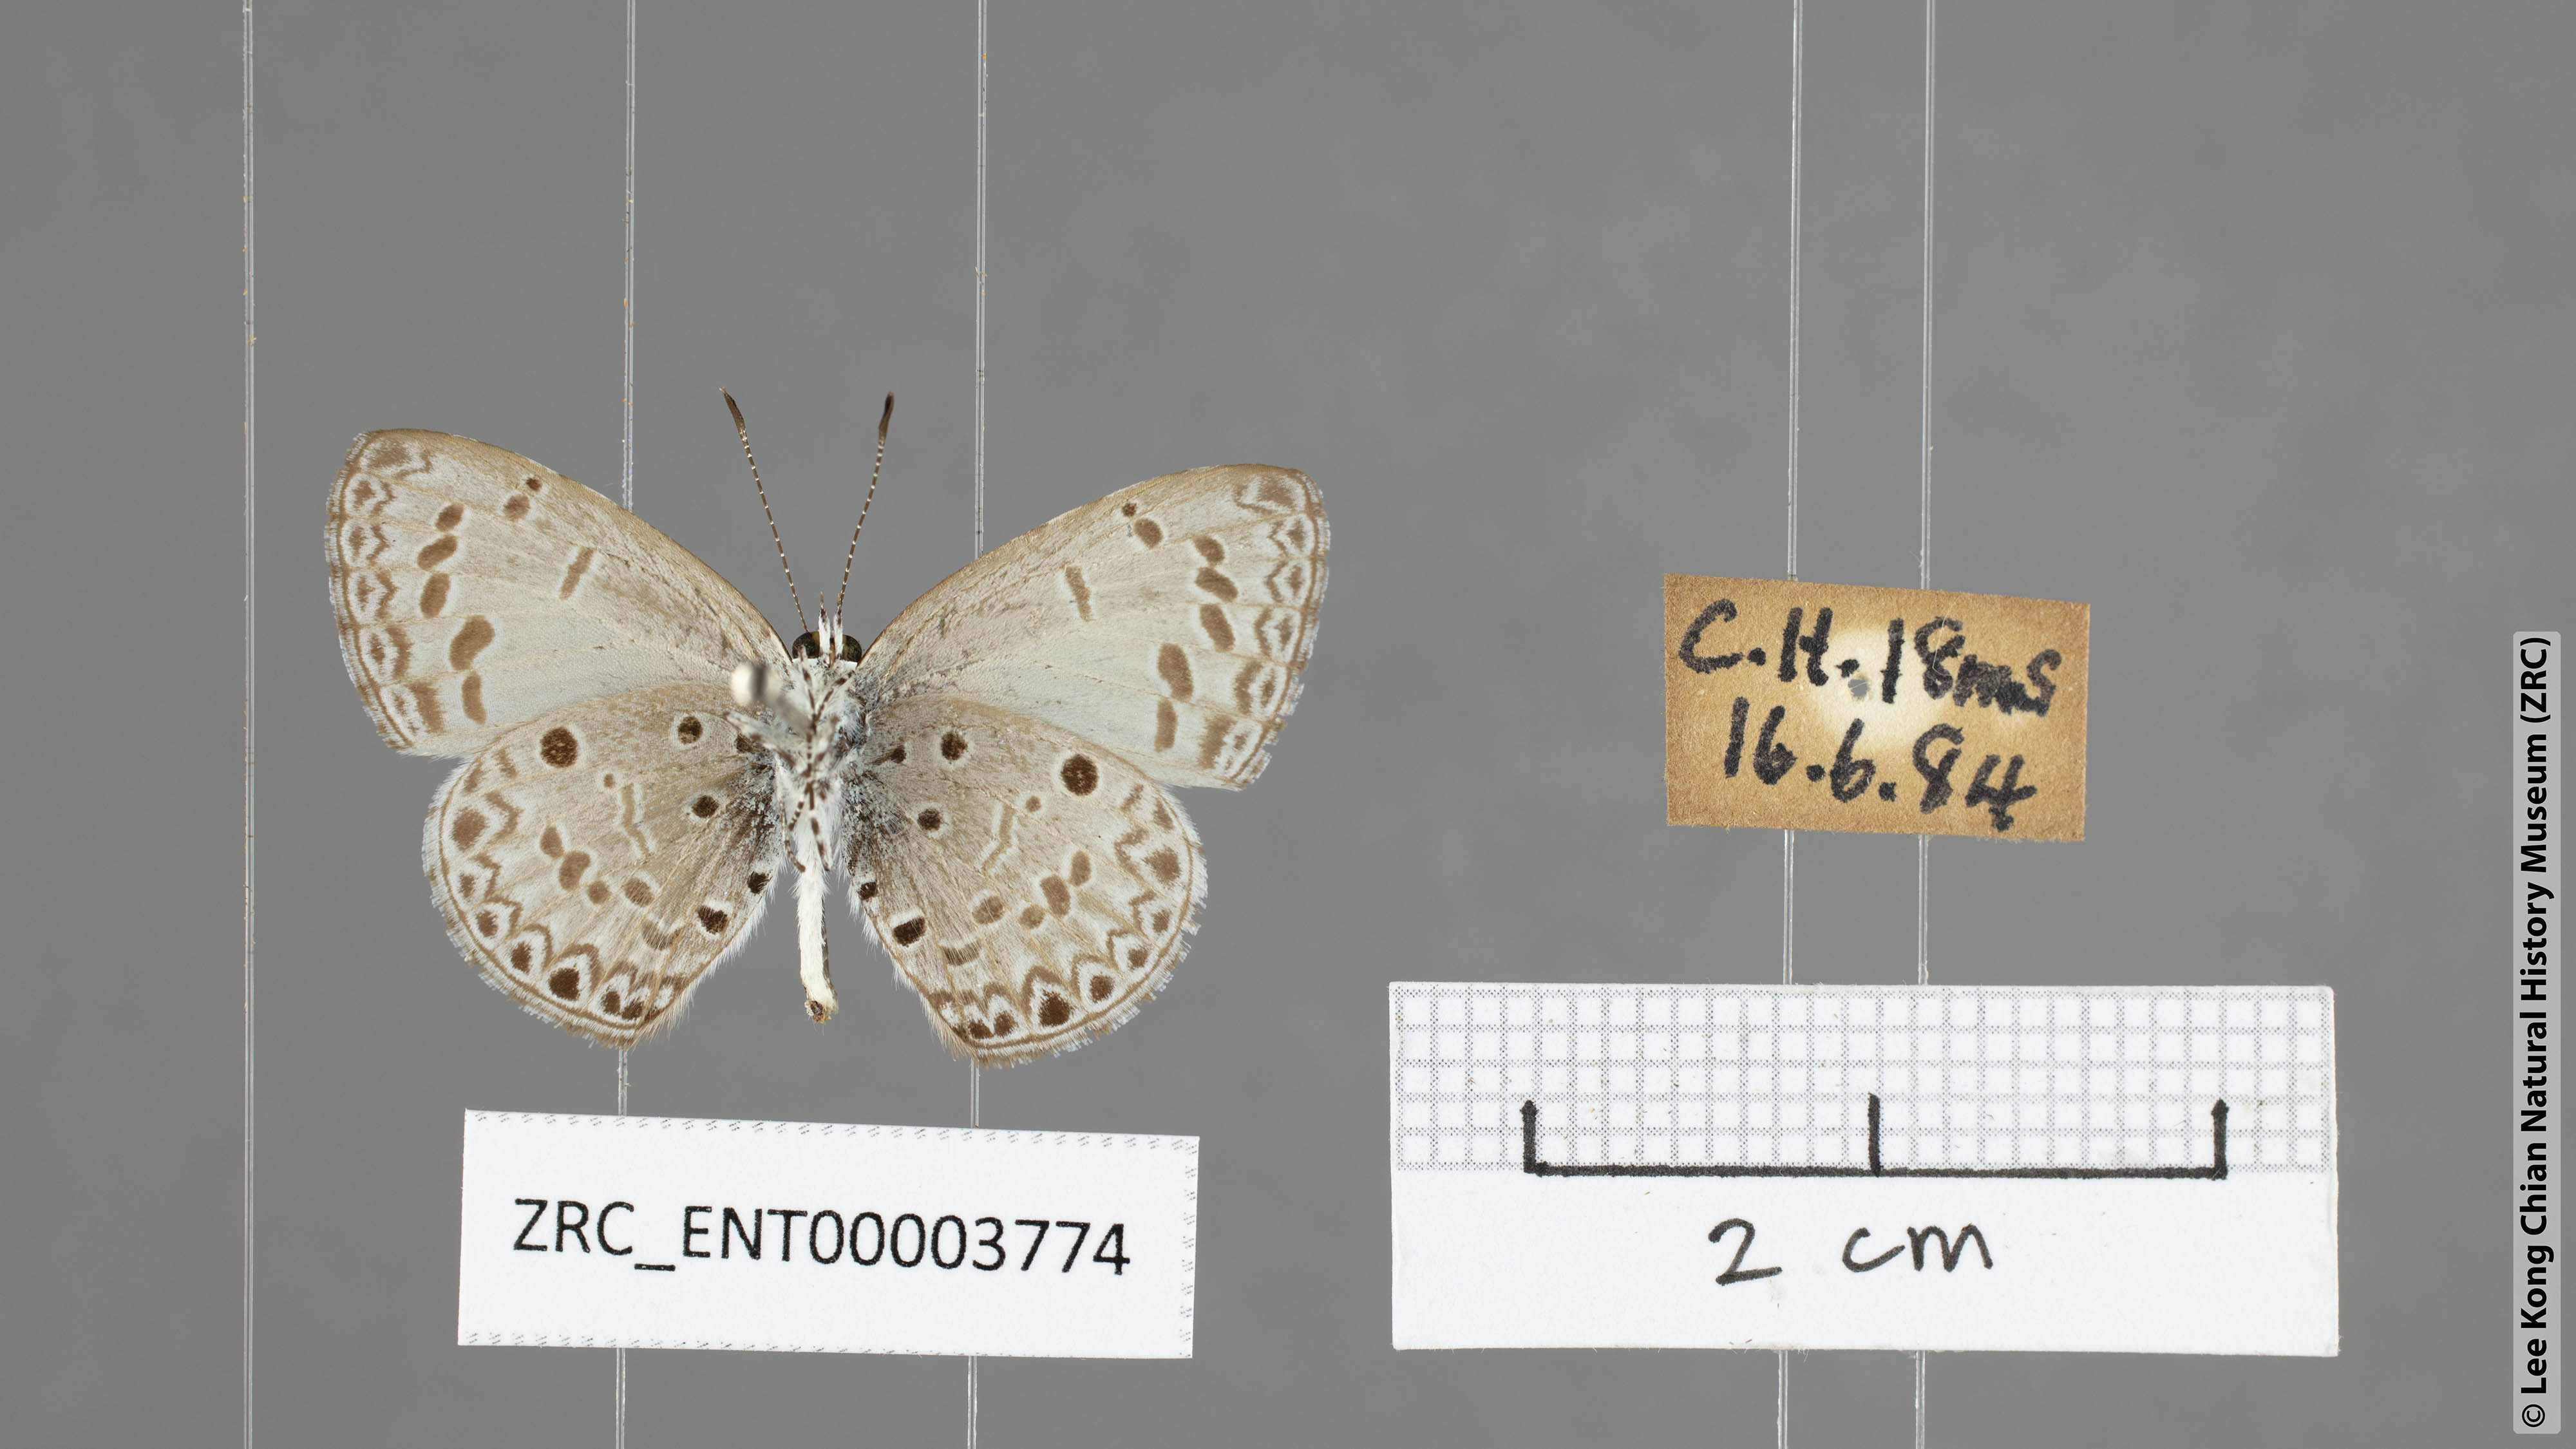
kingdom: Animalia
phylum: Arthropoda
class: Insecta
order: Lepidoptera
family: Lycaenidae
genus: Acytolepis
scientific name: Acytolepis puspa
